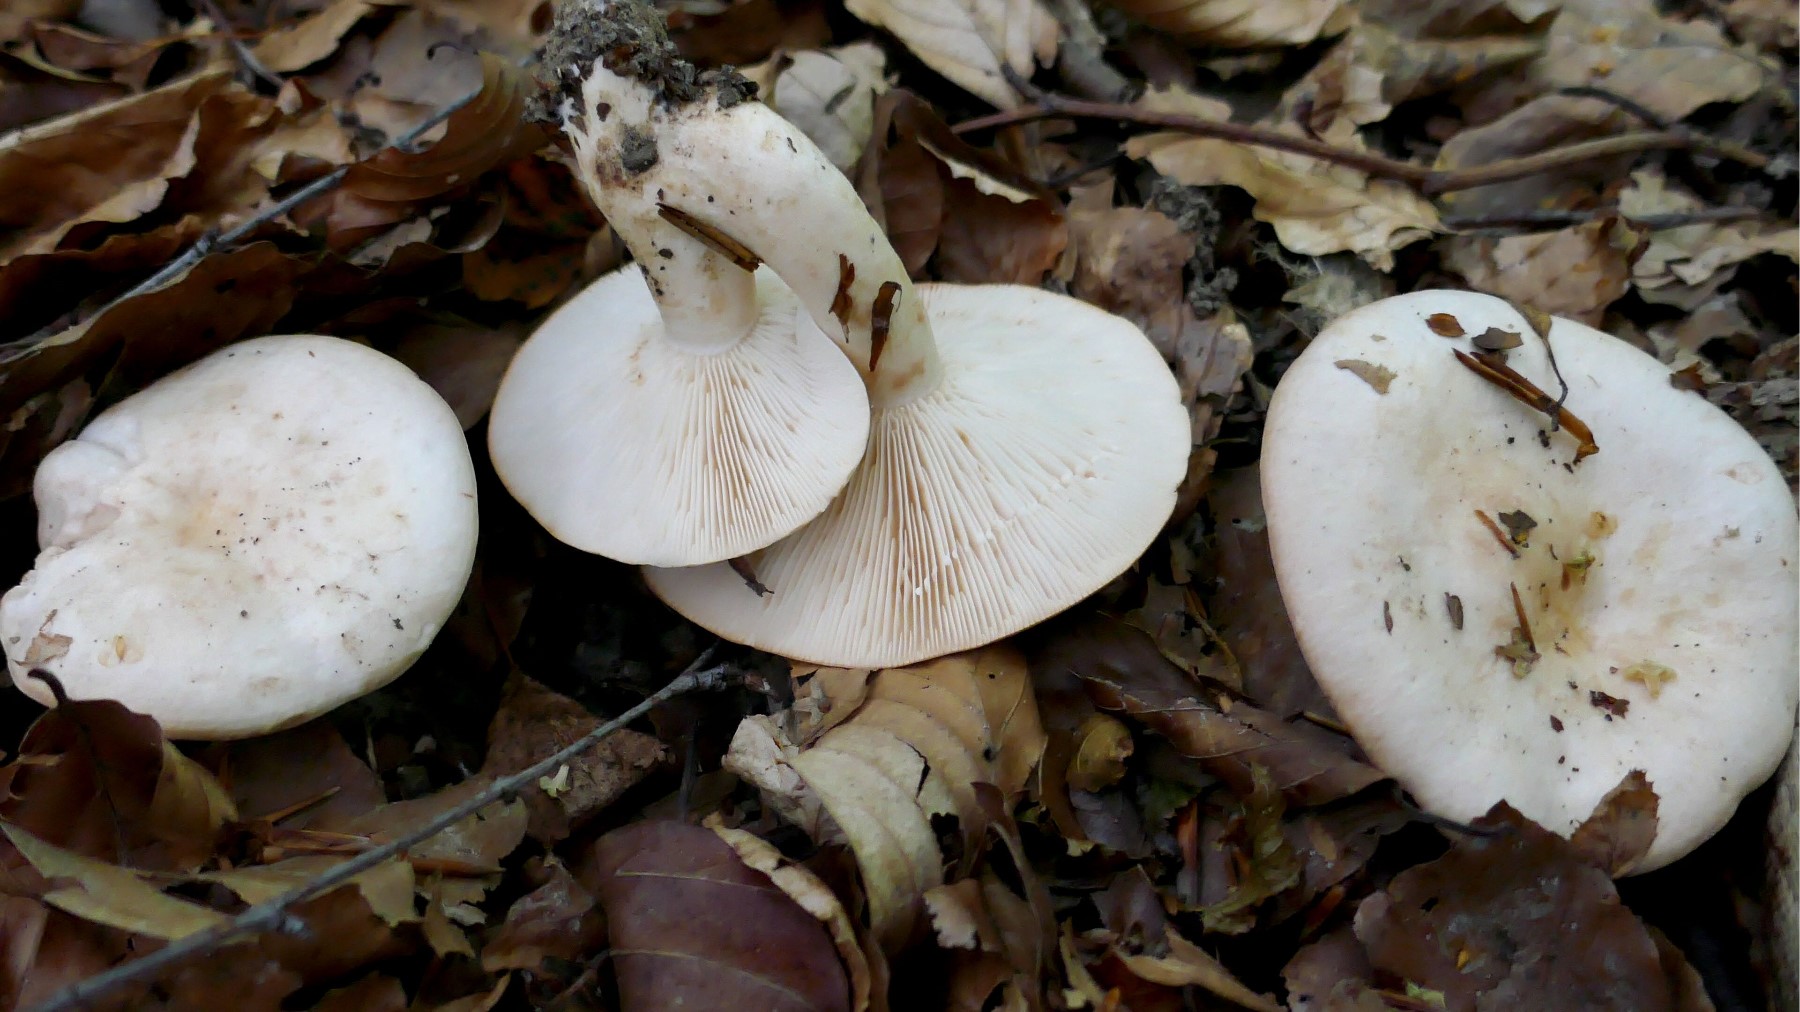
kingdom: Fungi
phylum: Basidiomycota
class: Agaricomycetes
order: Russulales
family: Russulaceae
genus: Lactarius
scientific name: Lactarius pallidus
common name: bleg mælkehat
